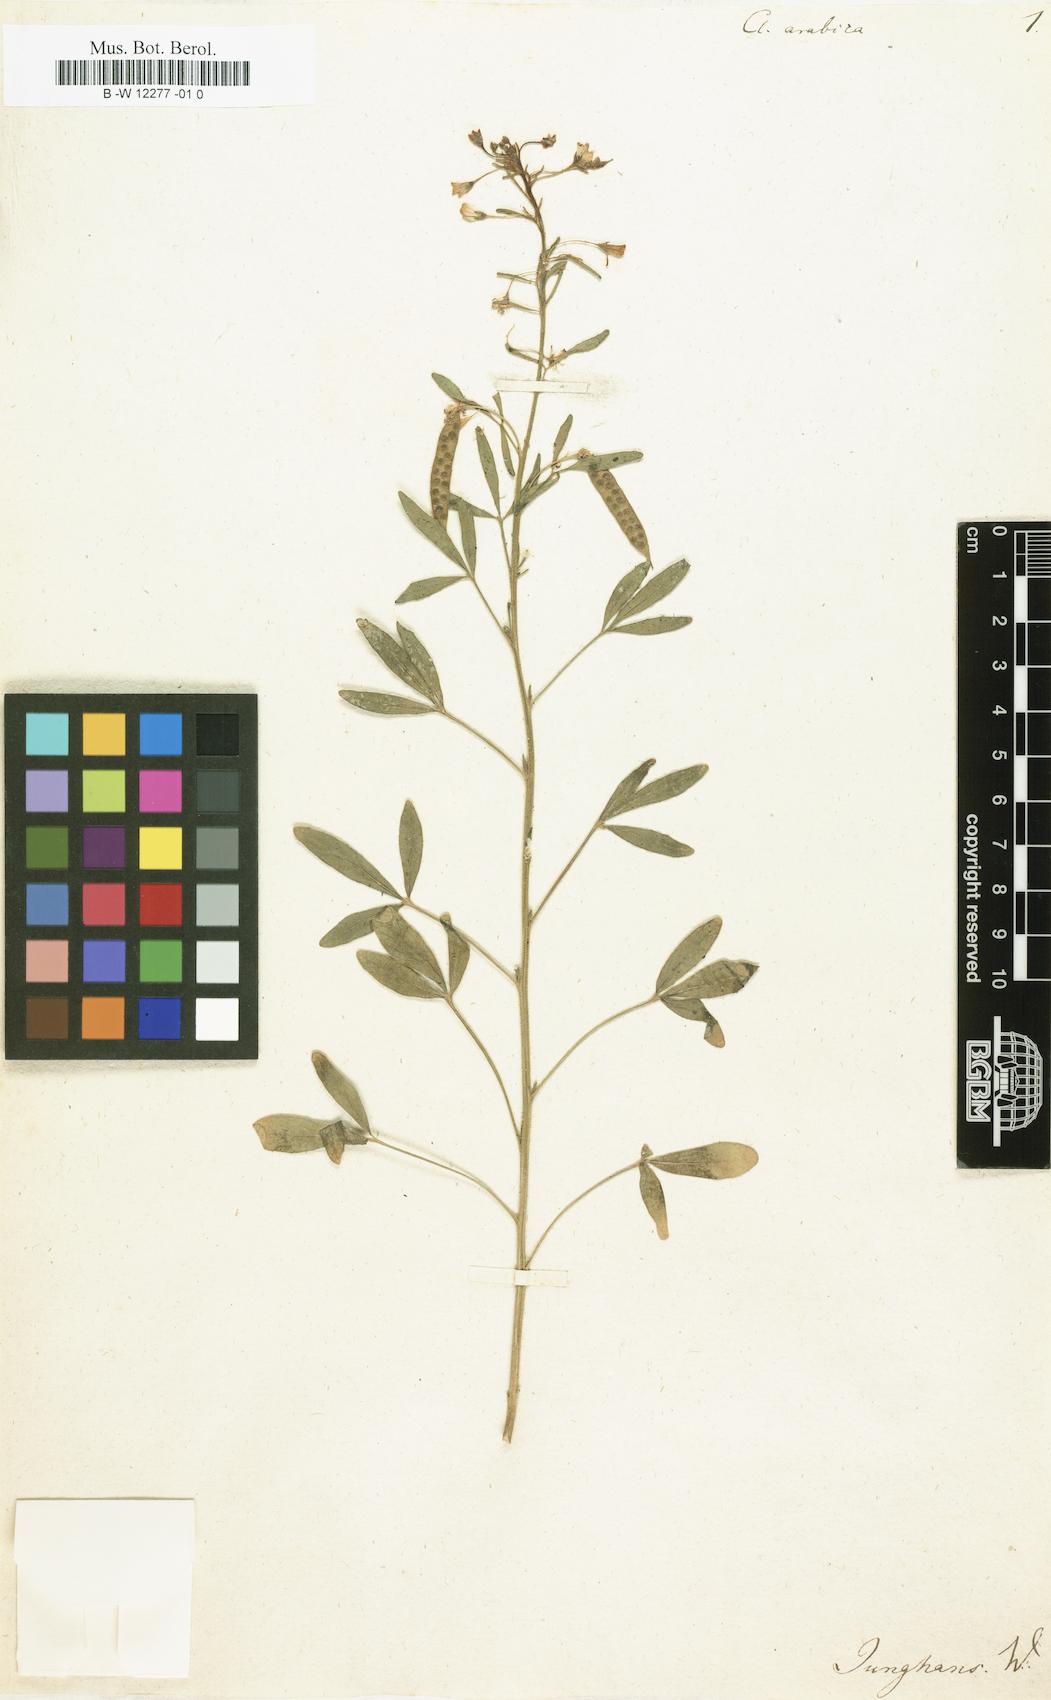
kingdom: Plantae
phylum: Tracheophyta
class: Magnoliopsida
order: Brassicales
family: Cleomaceae
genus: Cleome
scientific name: Cleome arabica
